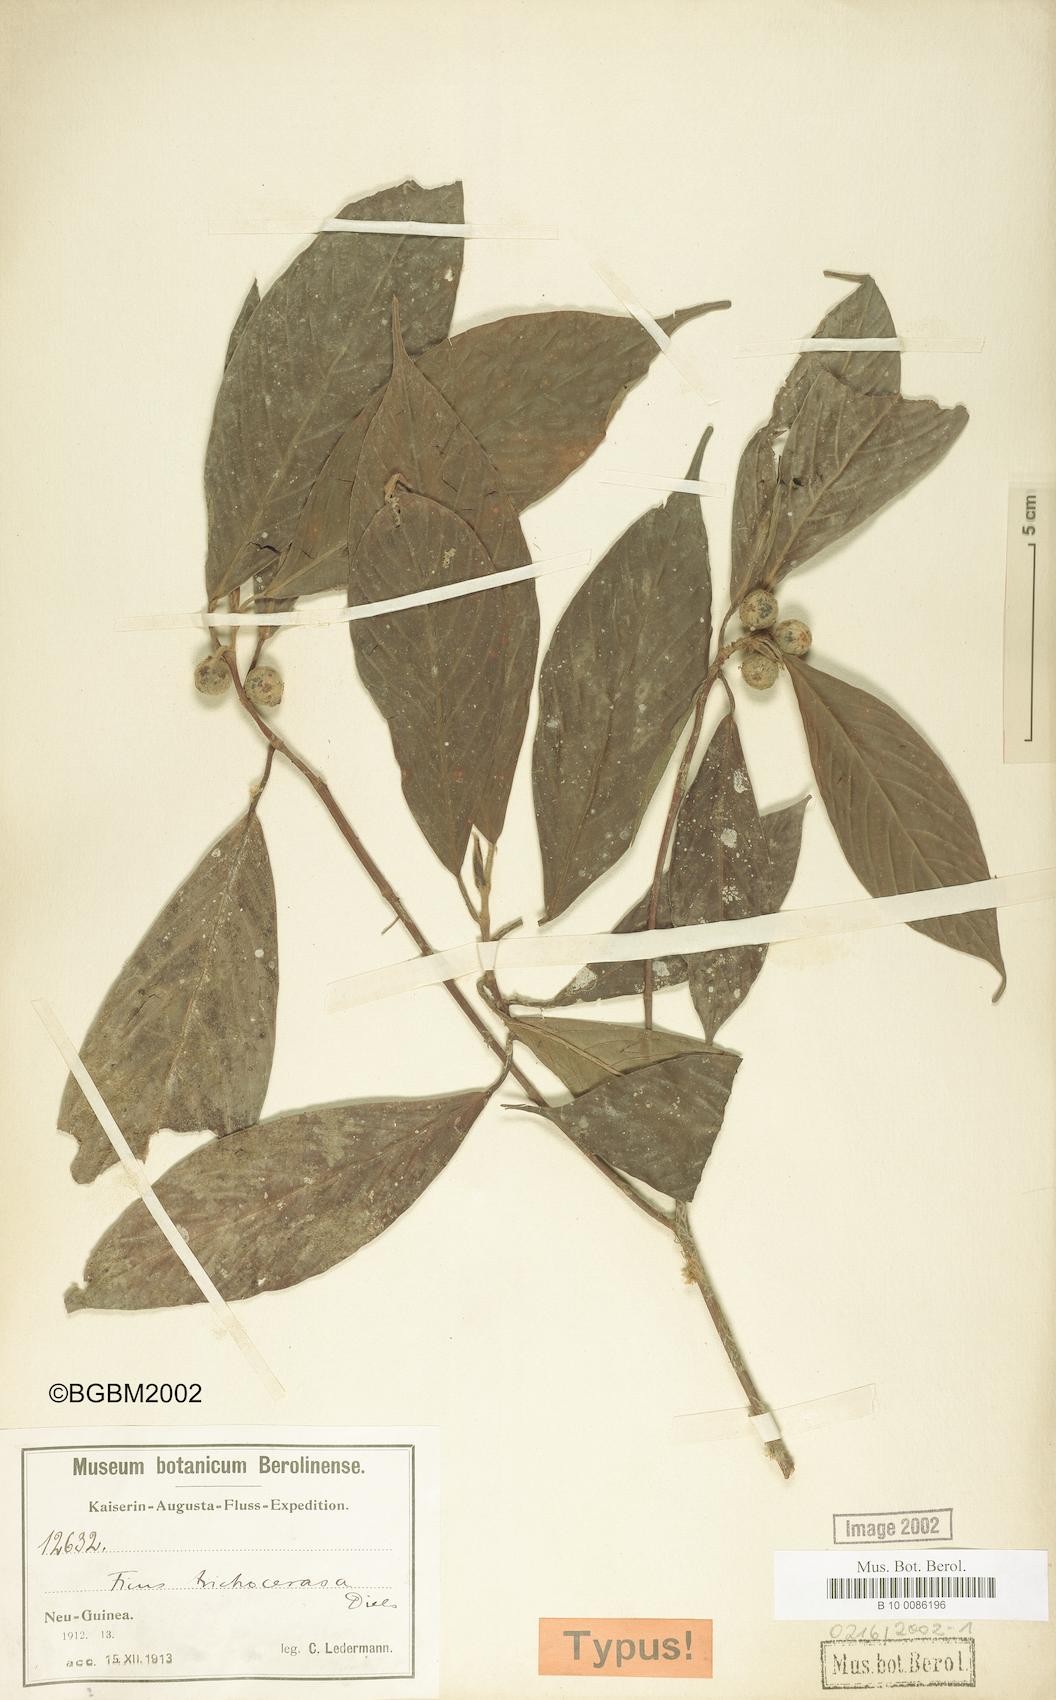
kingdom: Plantae
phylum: Tracheophyta
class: Magnoliopsida
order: Rosales
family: Moraceae
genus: Ficus
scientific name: Ficus trichocerasa
